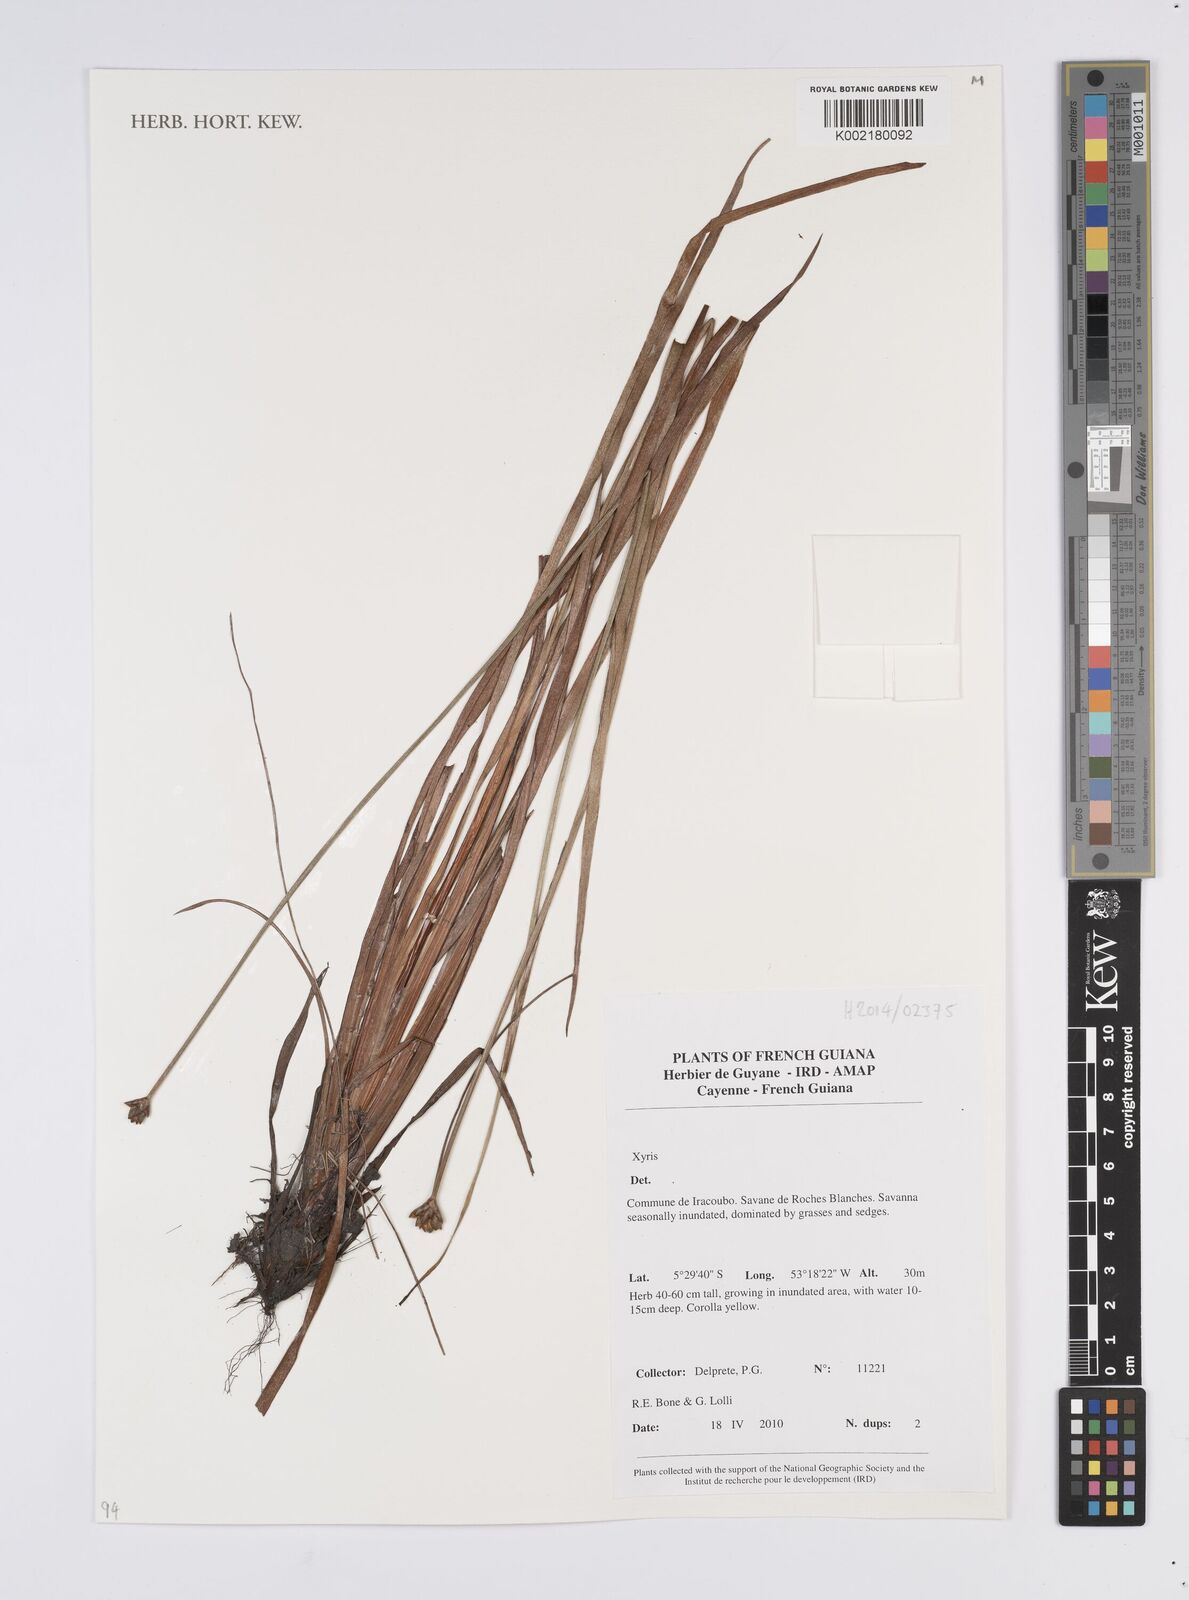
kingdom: Plantae
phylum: Tracheophyta
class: Liliopsida
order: Poales
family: Xyridaceae
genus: Xyris
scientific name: Xyris
